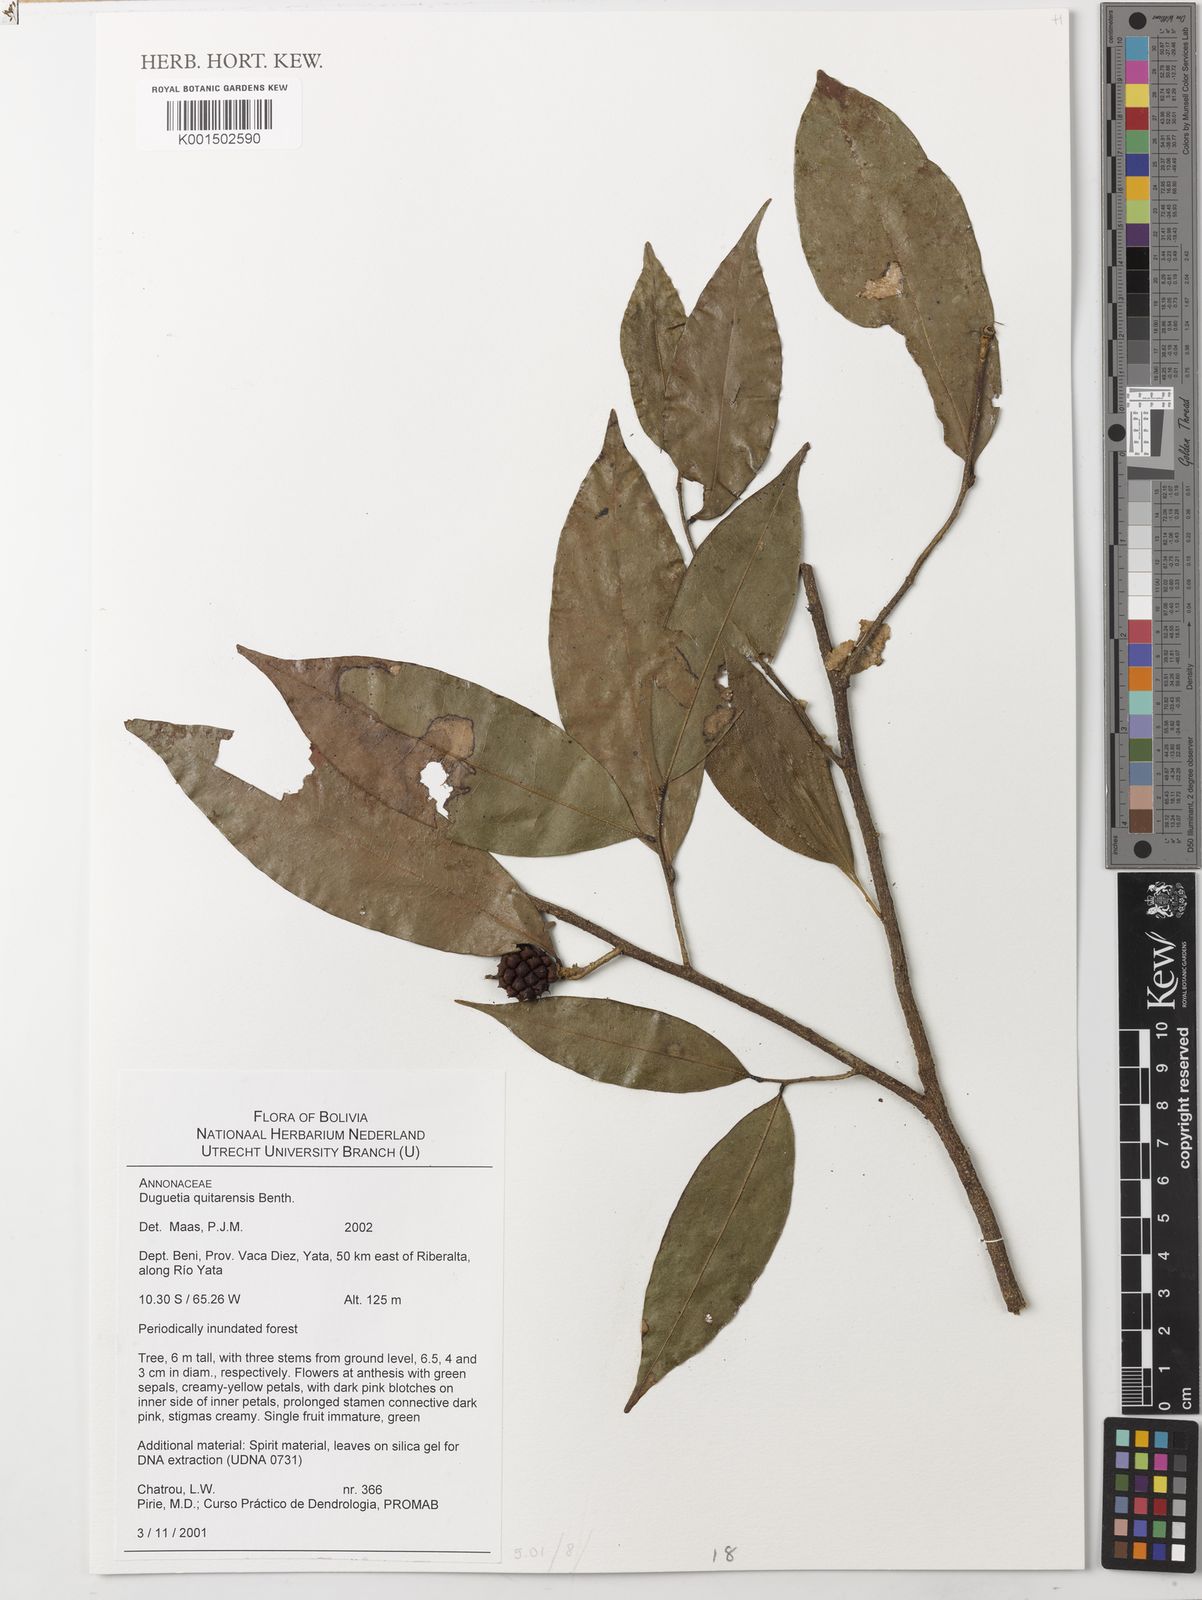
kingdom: Plantae
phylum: Tracheophyta
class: Magnoliopsida
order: Magnoliales
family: Annonaceae
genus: Duguetia
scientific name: Duguetia quitarensis
